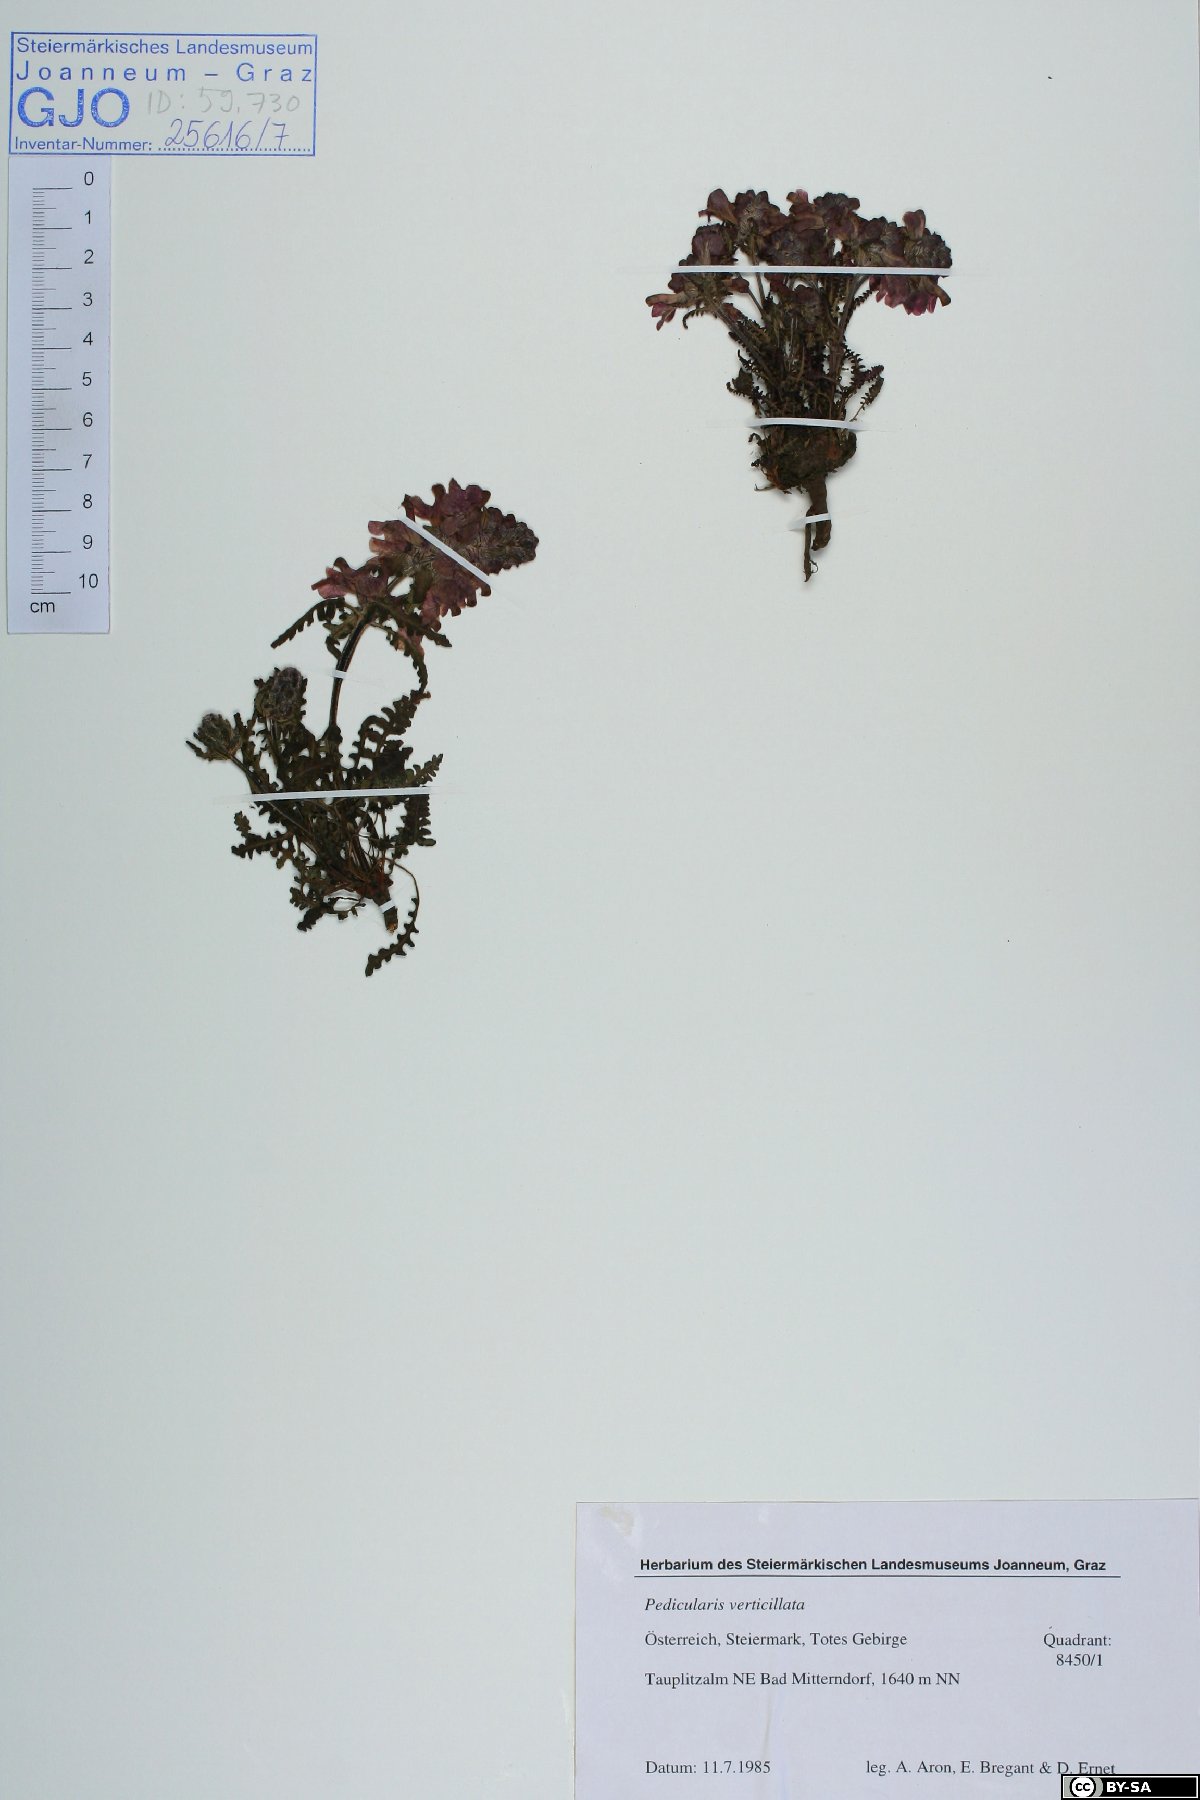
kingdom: Plantae
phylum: Tracheophyta
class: Magnoliopsida
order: Lamiales
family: Orobanchaceae
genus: Pedicularis
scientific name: Pedicularis verticillata
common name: Whorled lousewort
